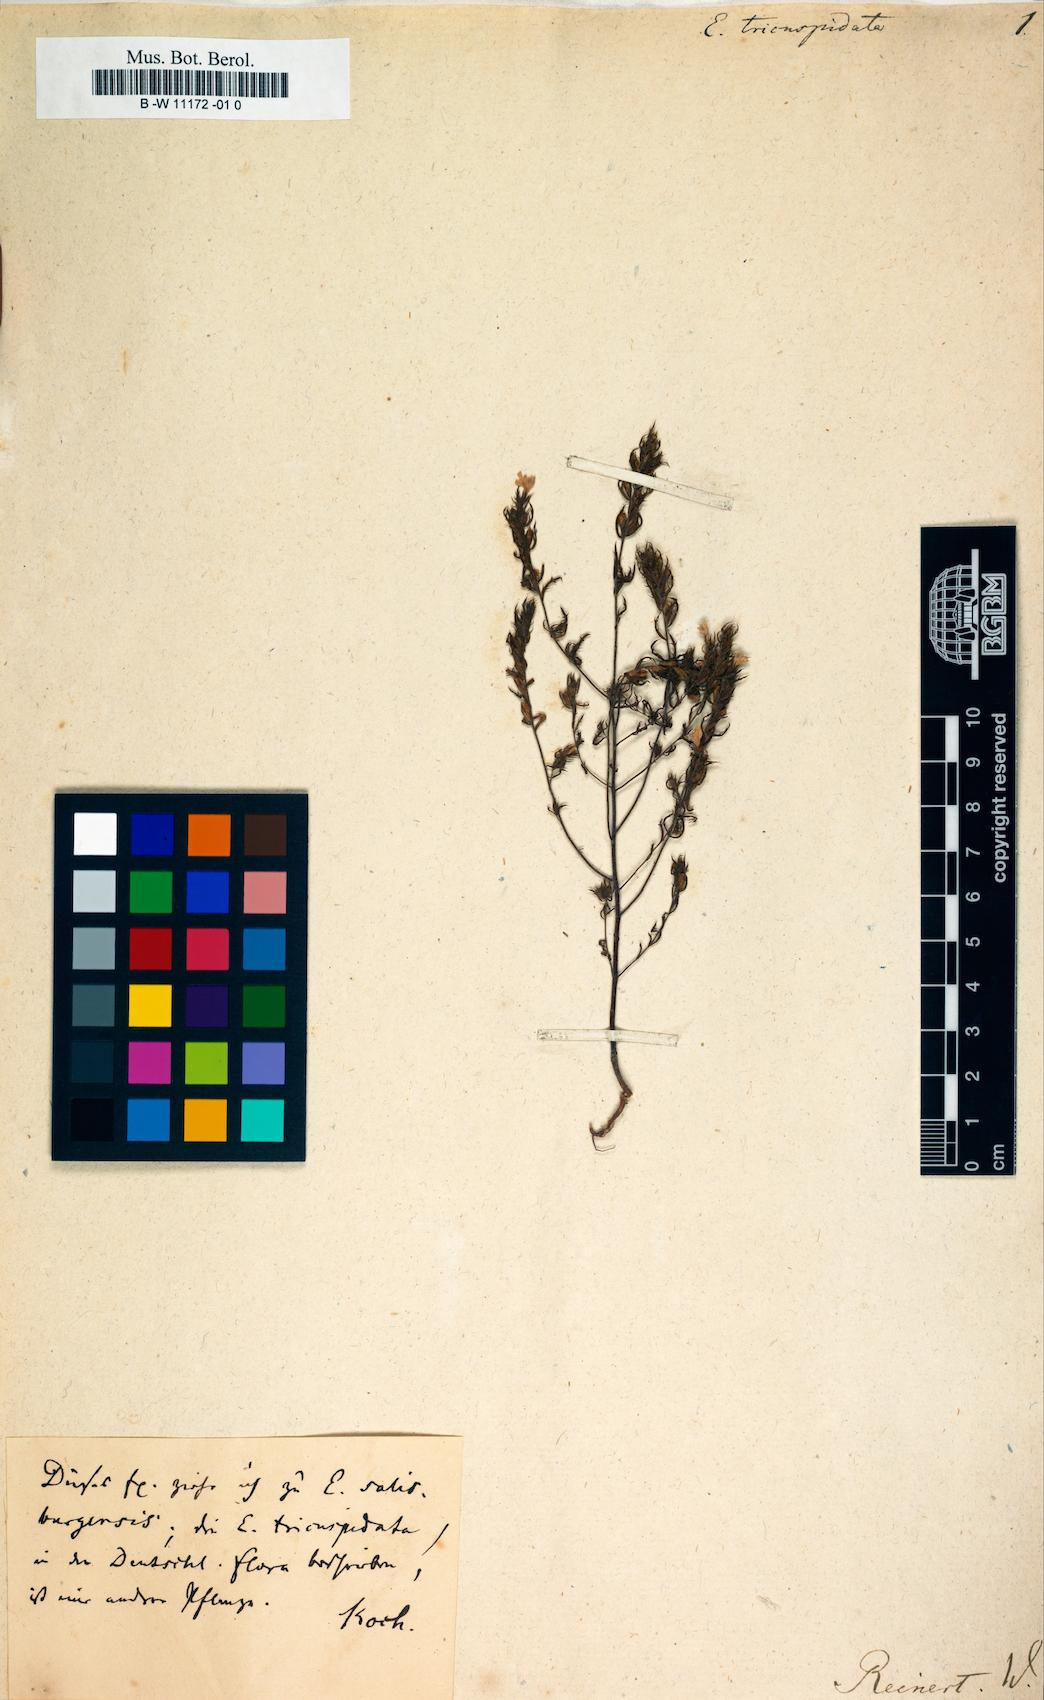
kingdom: Plantae
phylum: Tracheophyta
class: Magnoliopsida
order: Lamiales
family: Orobanchaceae
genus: Euphrasia
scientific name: Euphrasia tricuspidata
